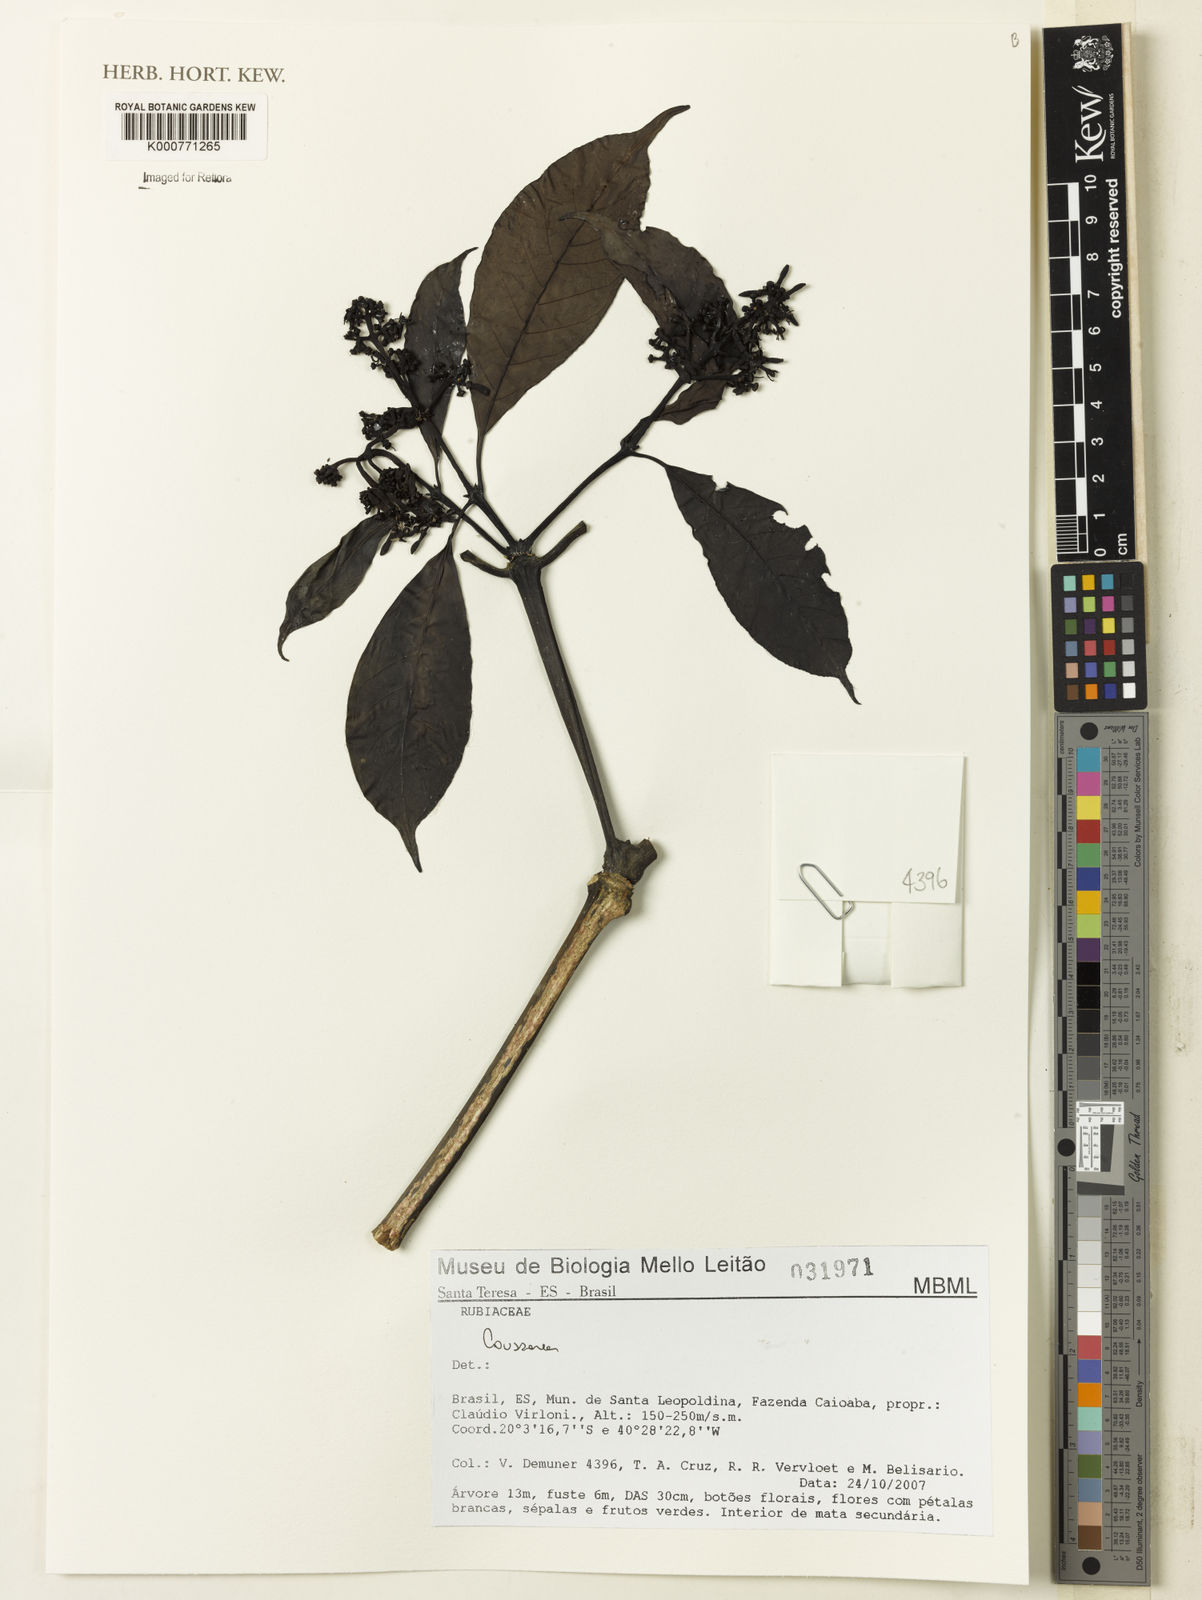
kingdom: Plantae
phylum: Tracheophyta
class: Magnoliopsida
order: Gentianales
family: Rubiaceae
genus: Coussarea
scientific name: Coussarea
